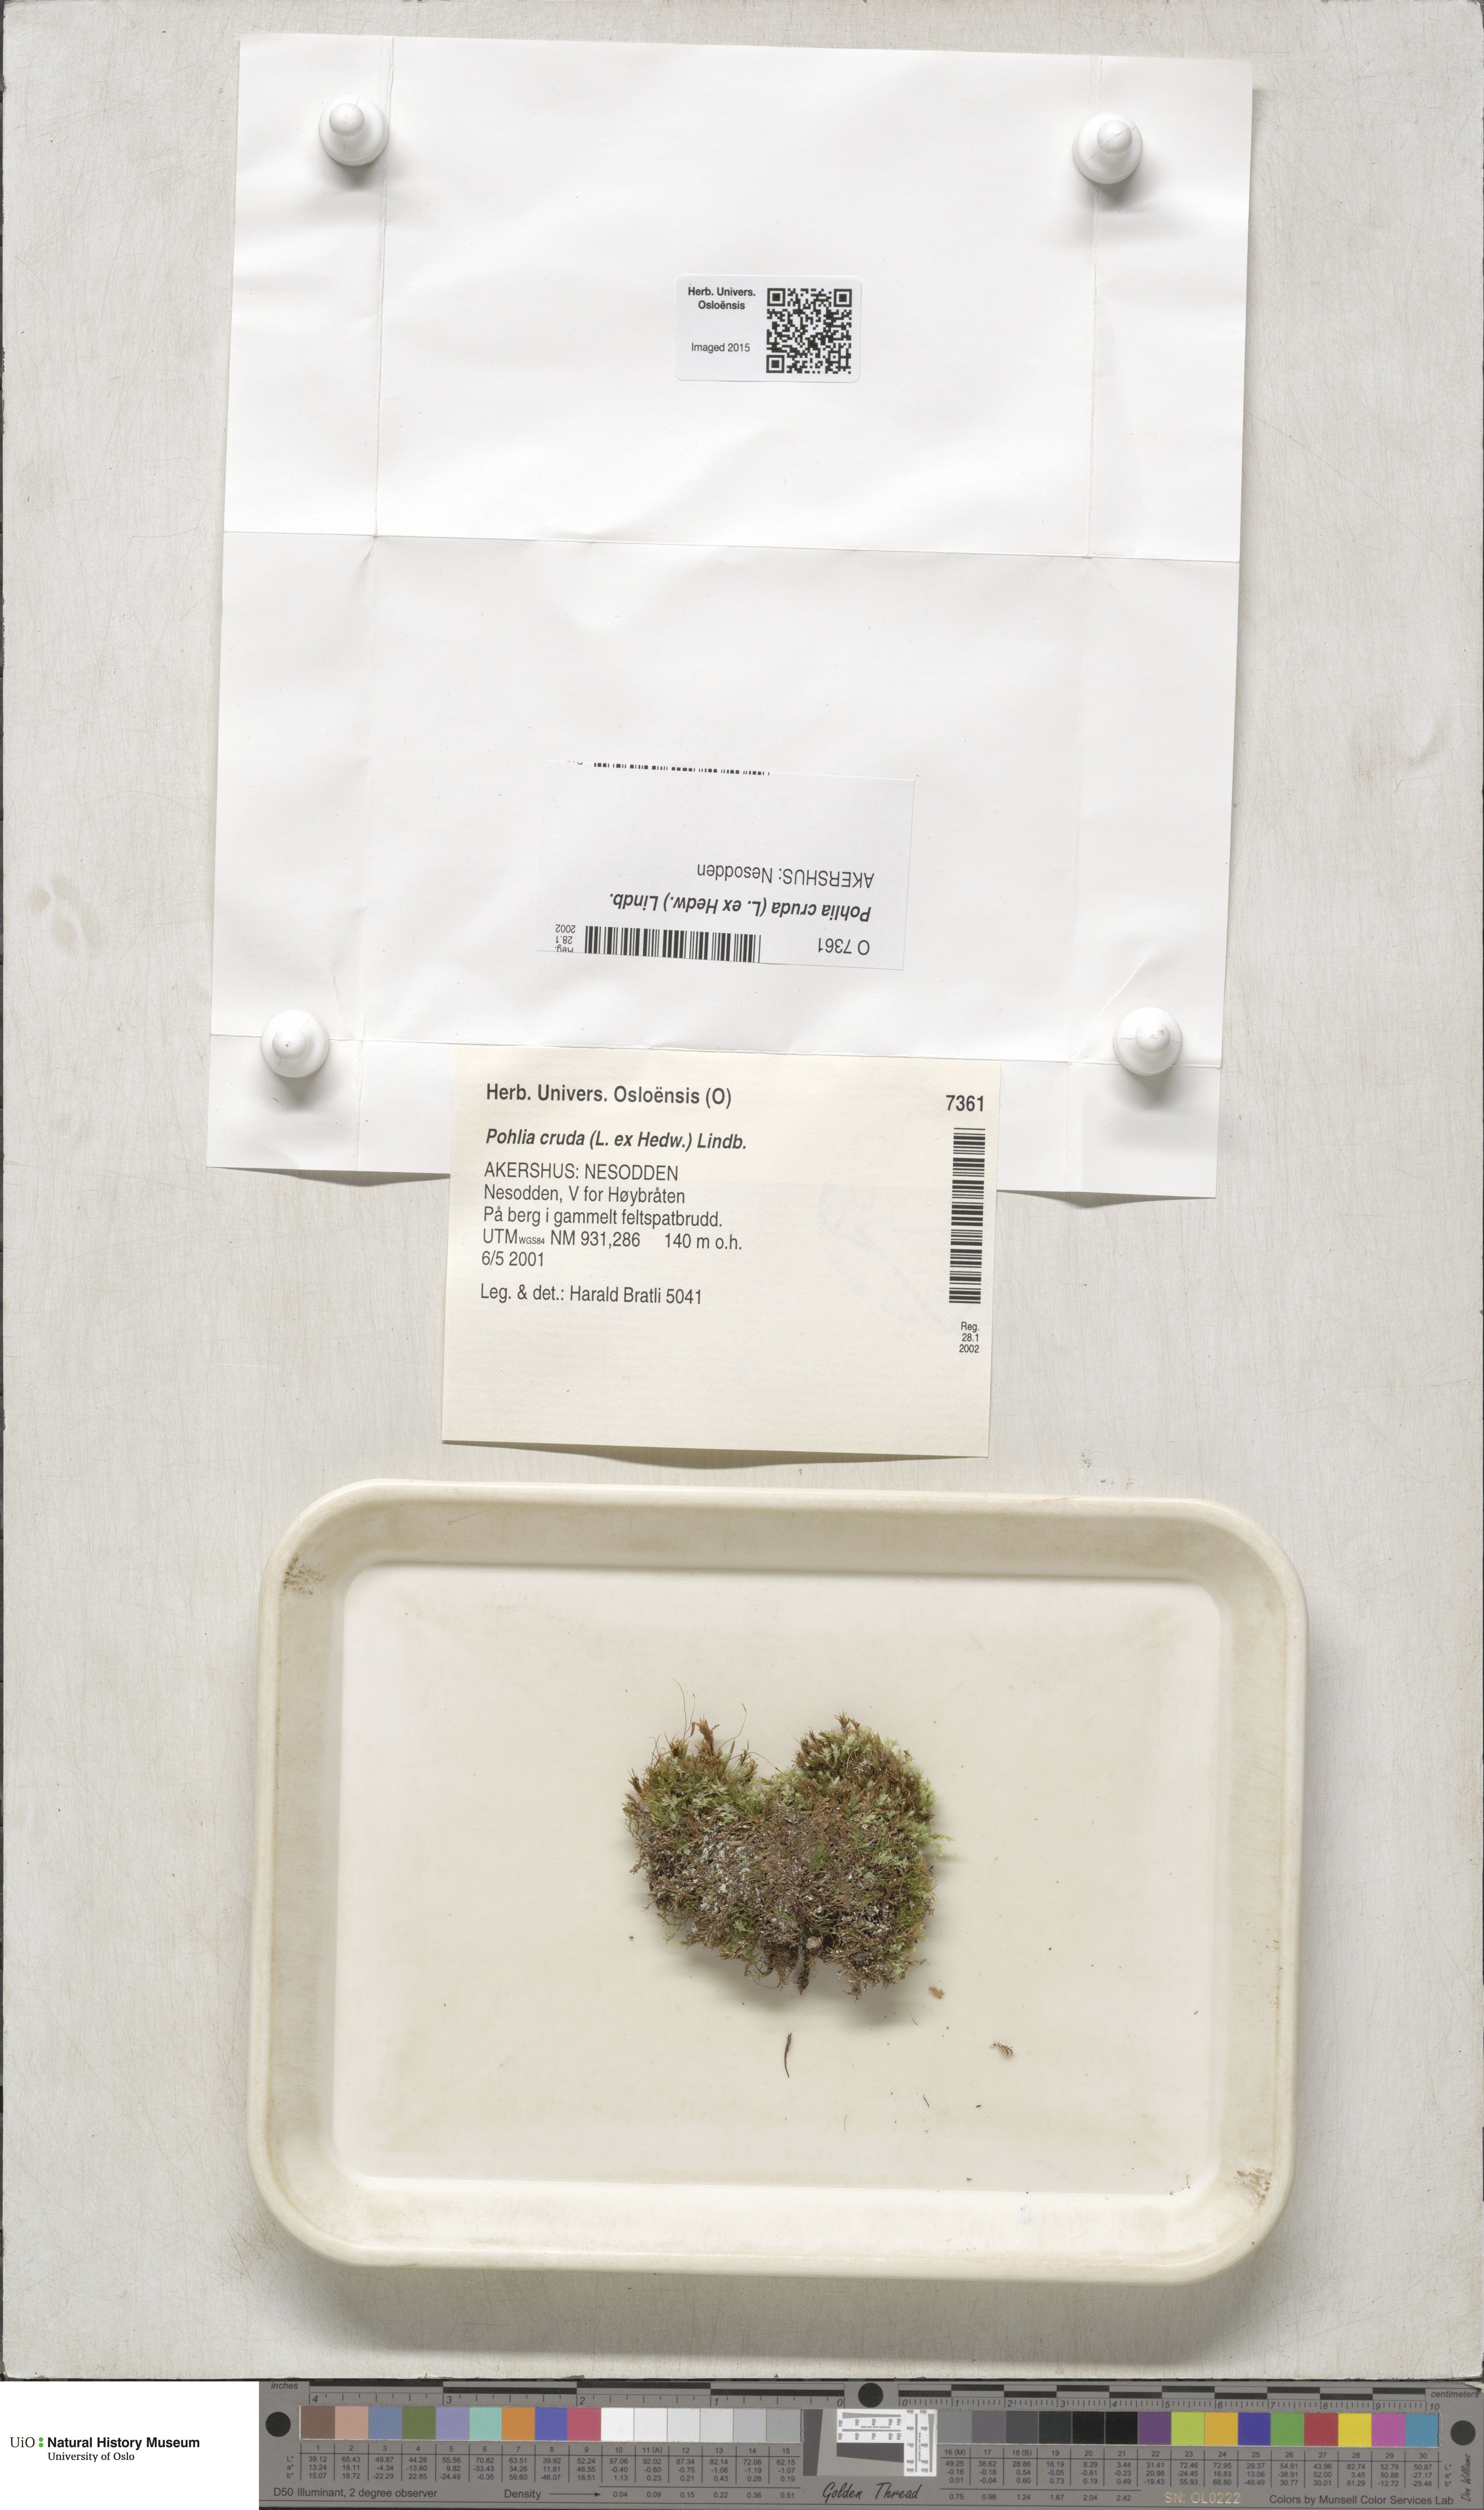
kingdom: Plantae
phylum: Bryophyta
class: Bryopsida
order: Bryales
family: Mniaceae
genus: Pohlia
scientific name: Pohlia cruda
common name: Opal nodding moss
